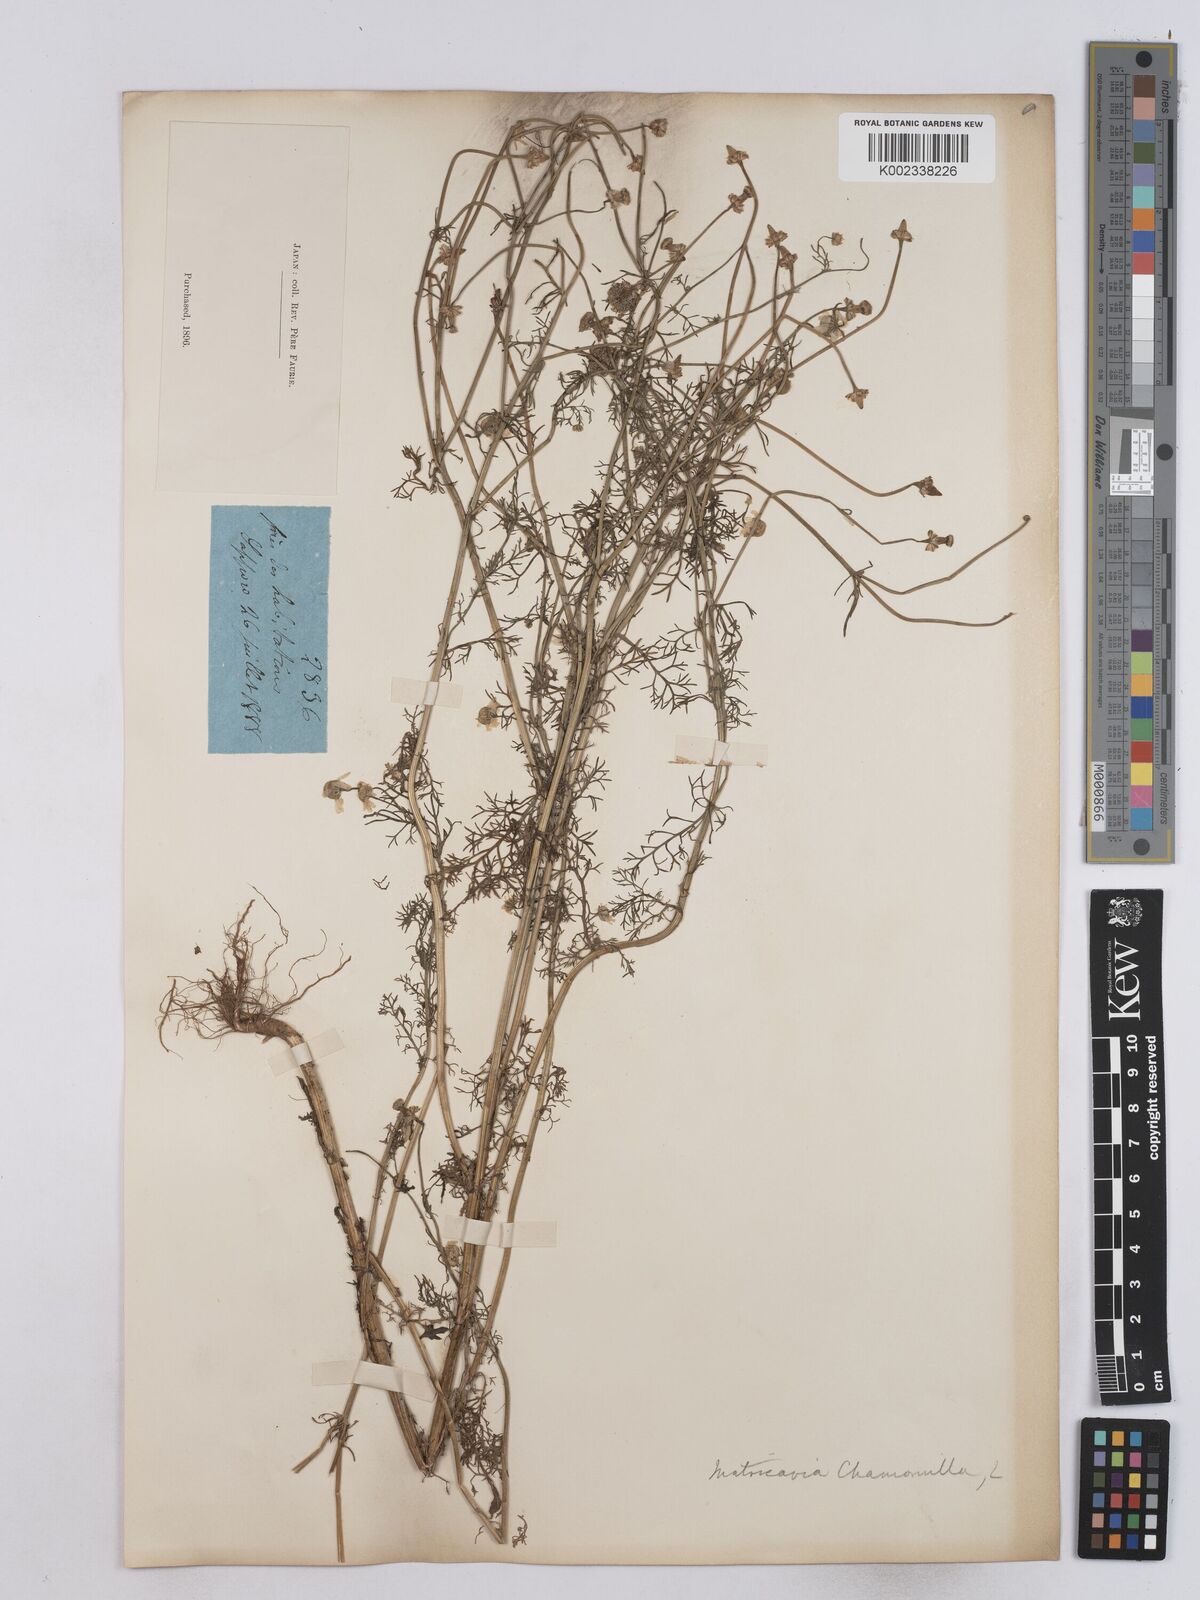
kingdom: Plantae
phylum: Tracheophyta
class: Magnoliopsida
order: Asterales
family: Asteraceae
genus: Matricaria
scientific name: Matricaria chamomilla
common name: Scented mayweed
